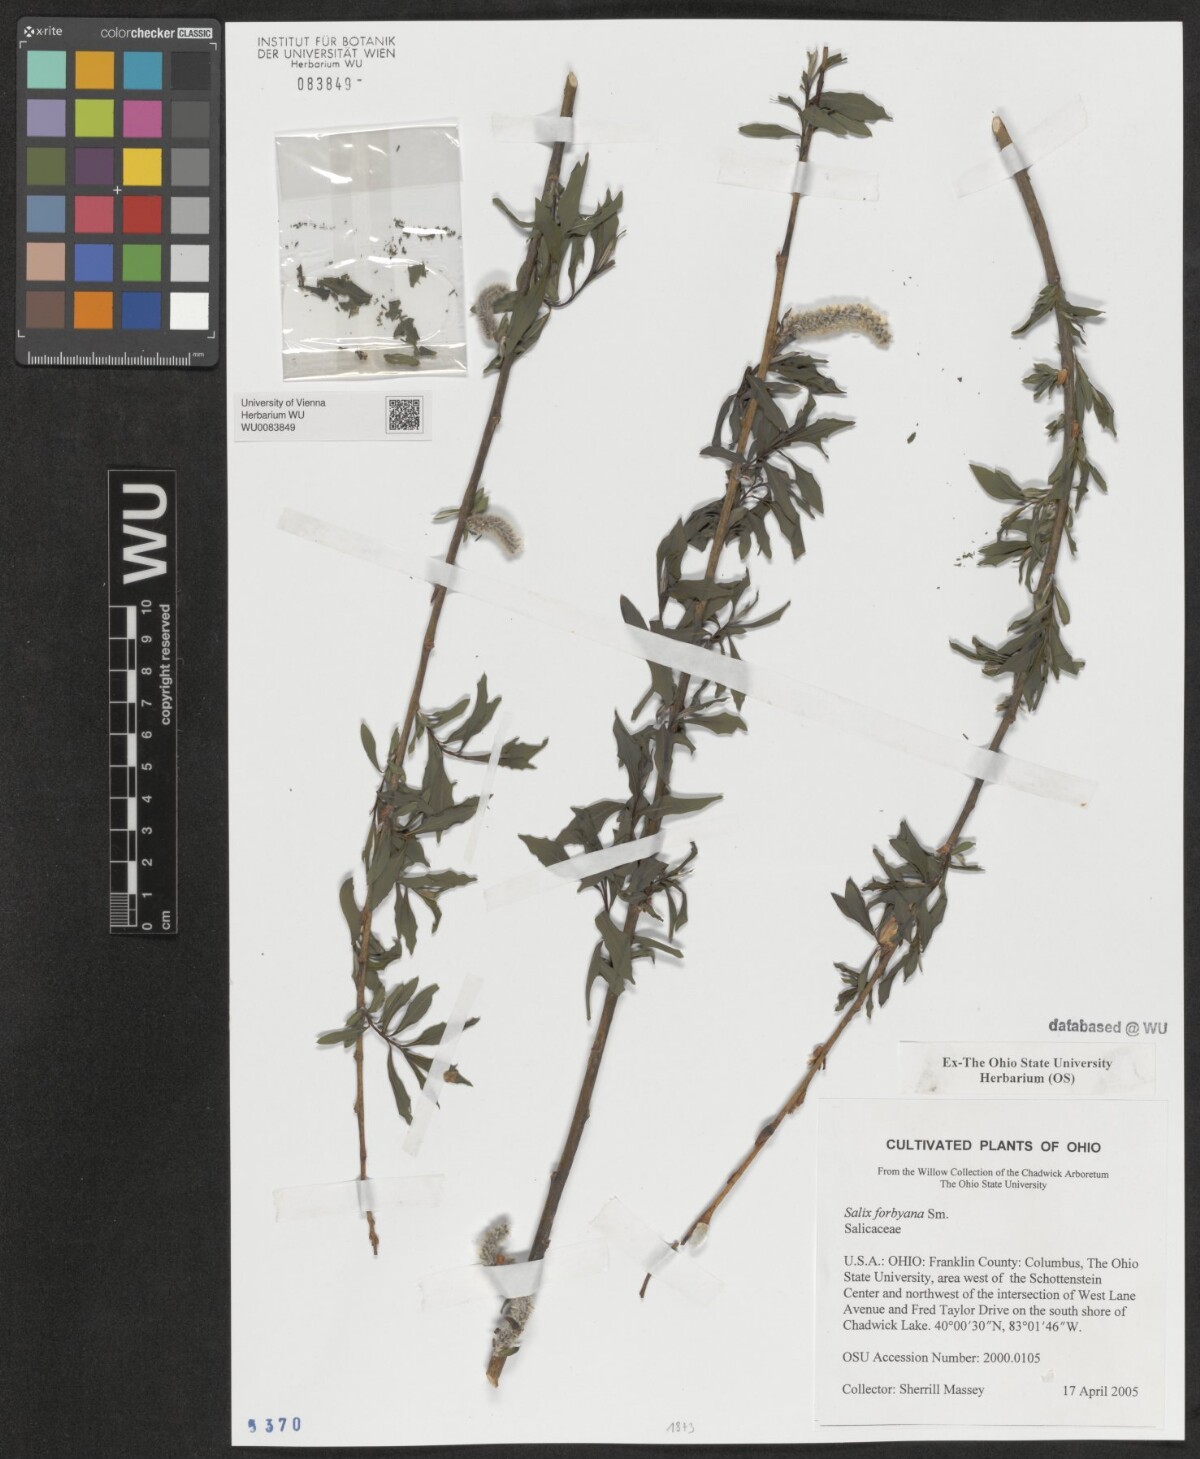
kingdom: Plantae
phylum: Tracheophyta
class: Magnoliopsida
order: Malpighiales
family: Salicaceae
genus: Salix
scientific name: Salix rubra
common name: Green-leaf willow
